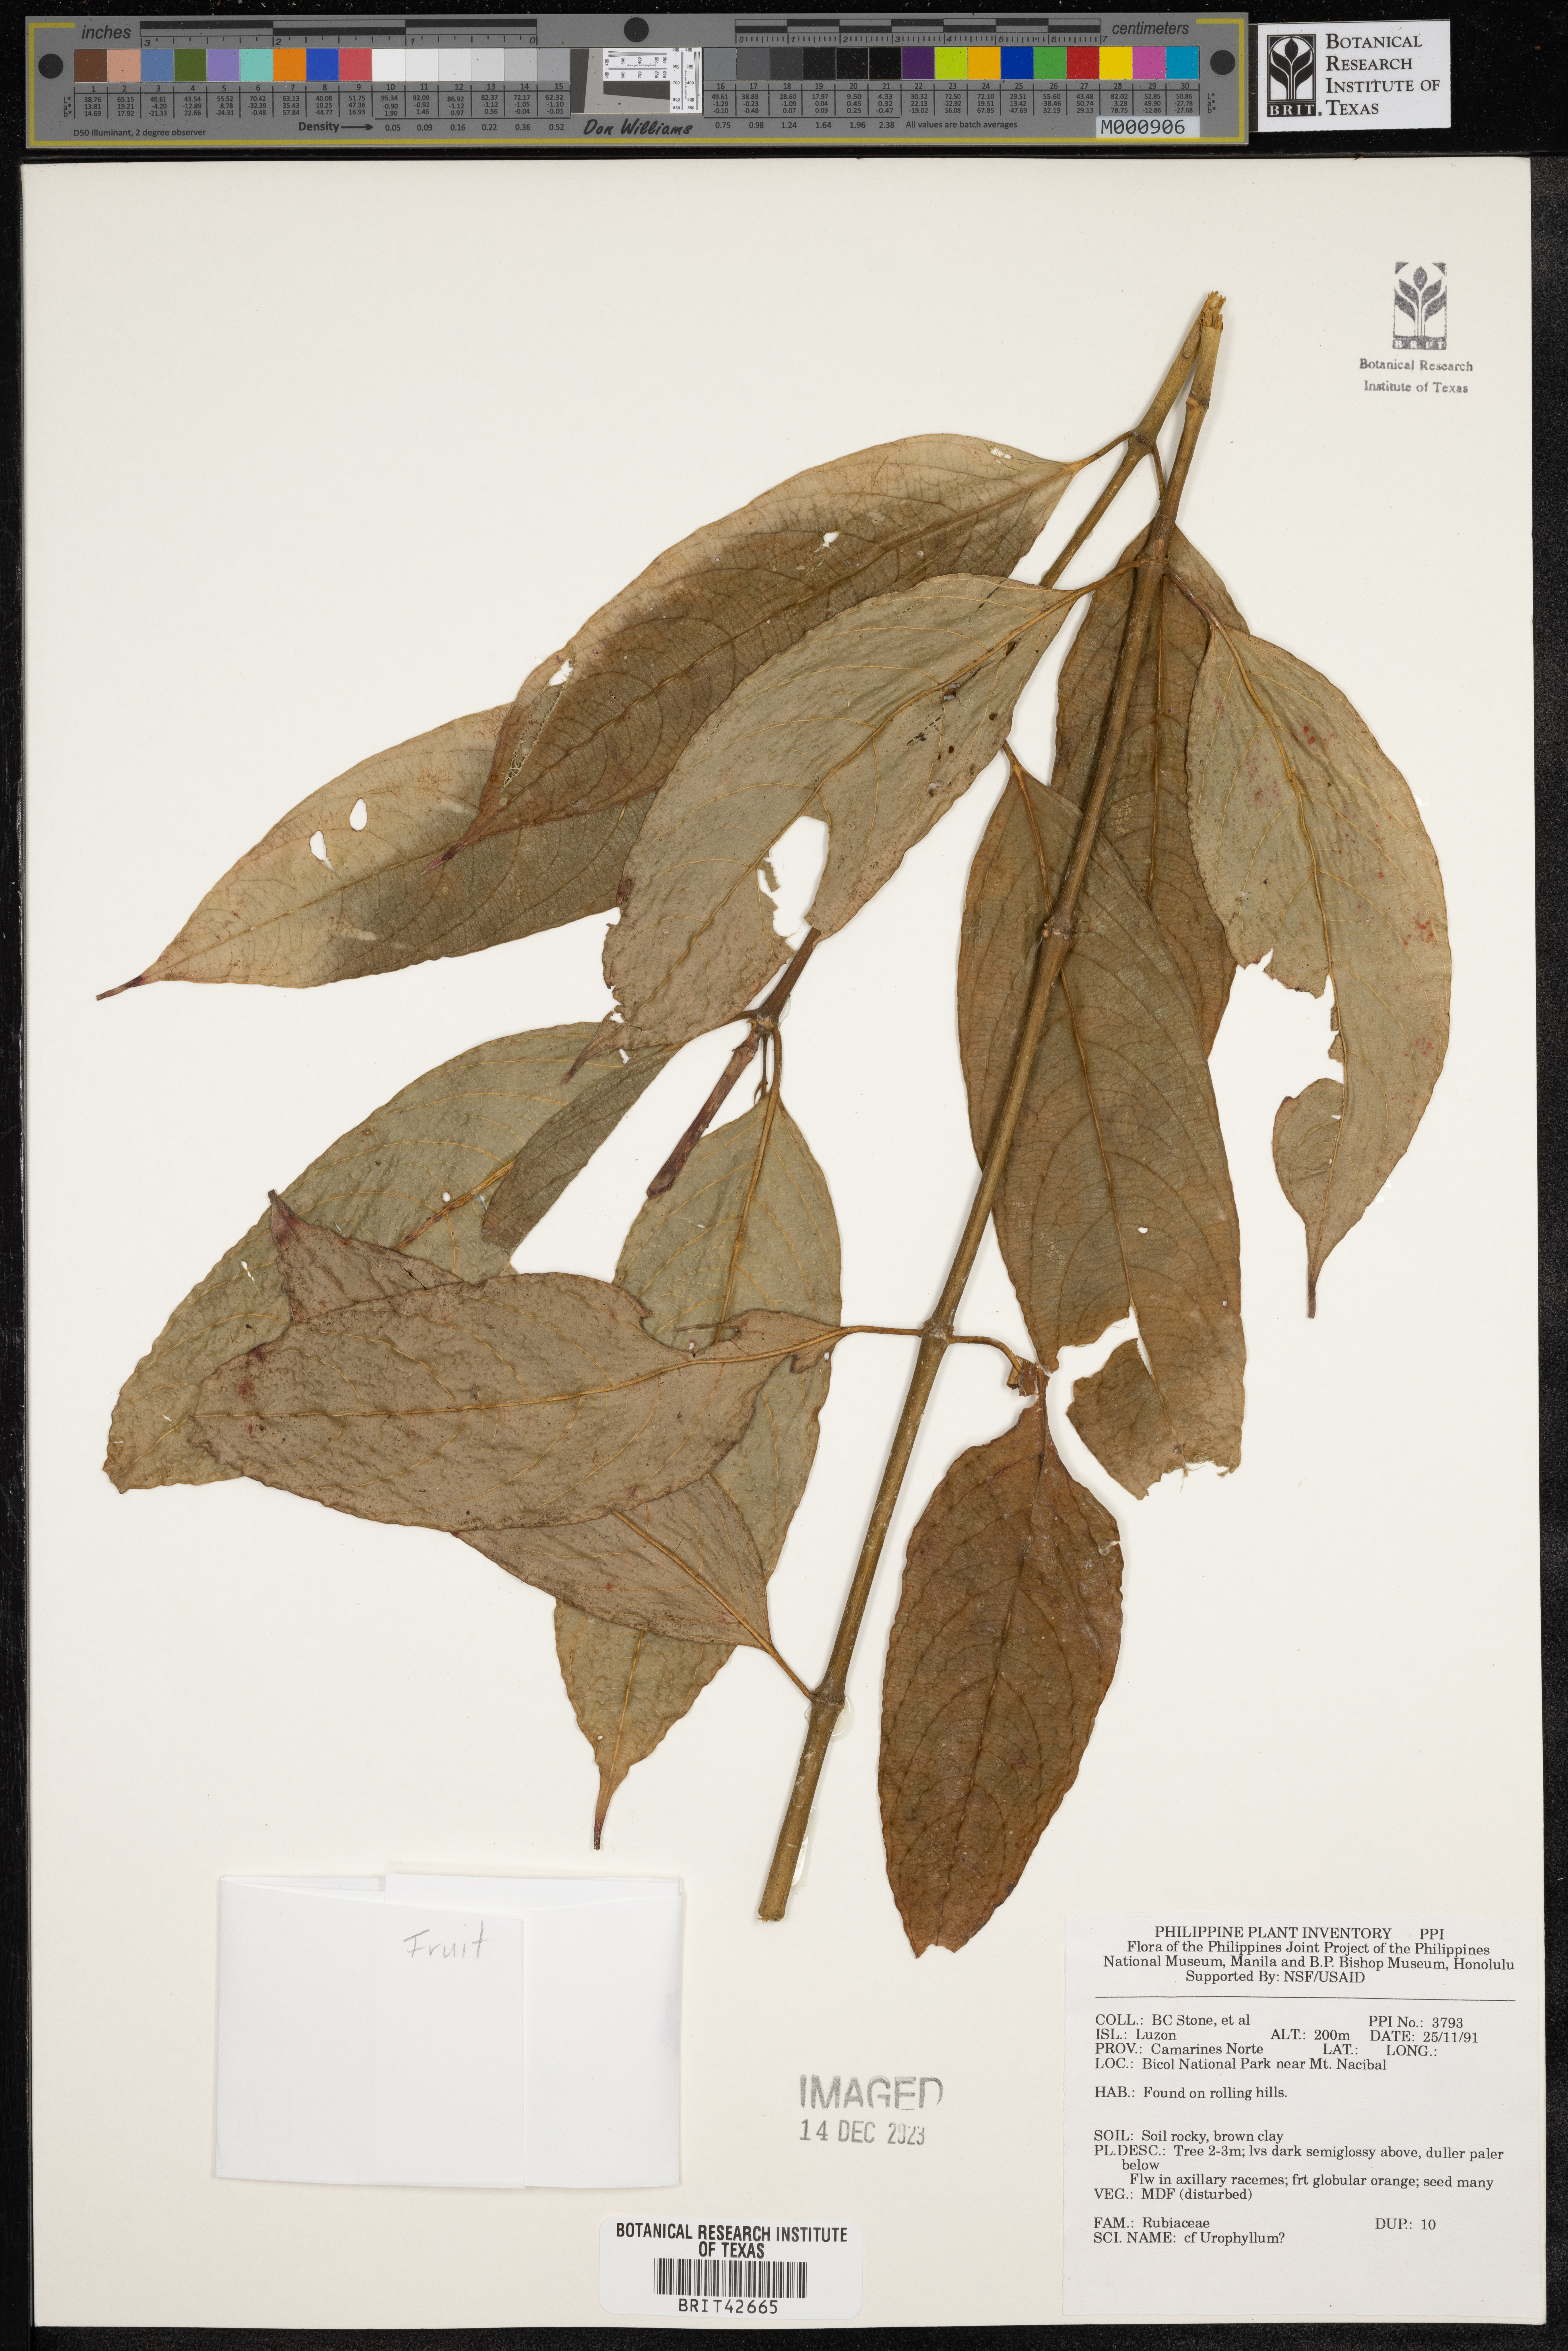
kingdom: Plantae
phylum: Tracheophyta
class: Magnoliopsida
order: Gentianales
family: Rubiaceae
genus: Urophyllum
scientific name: Urophyllum
